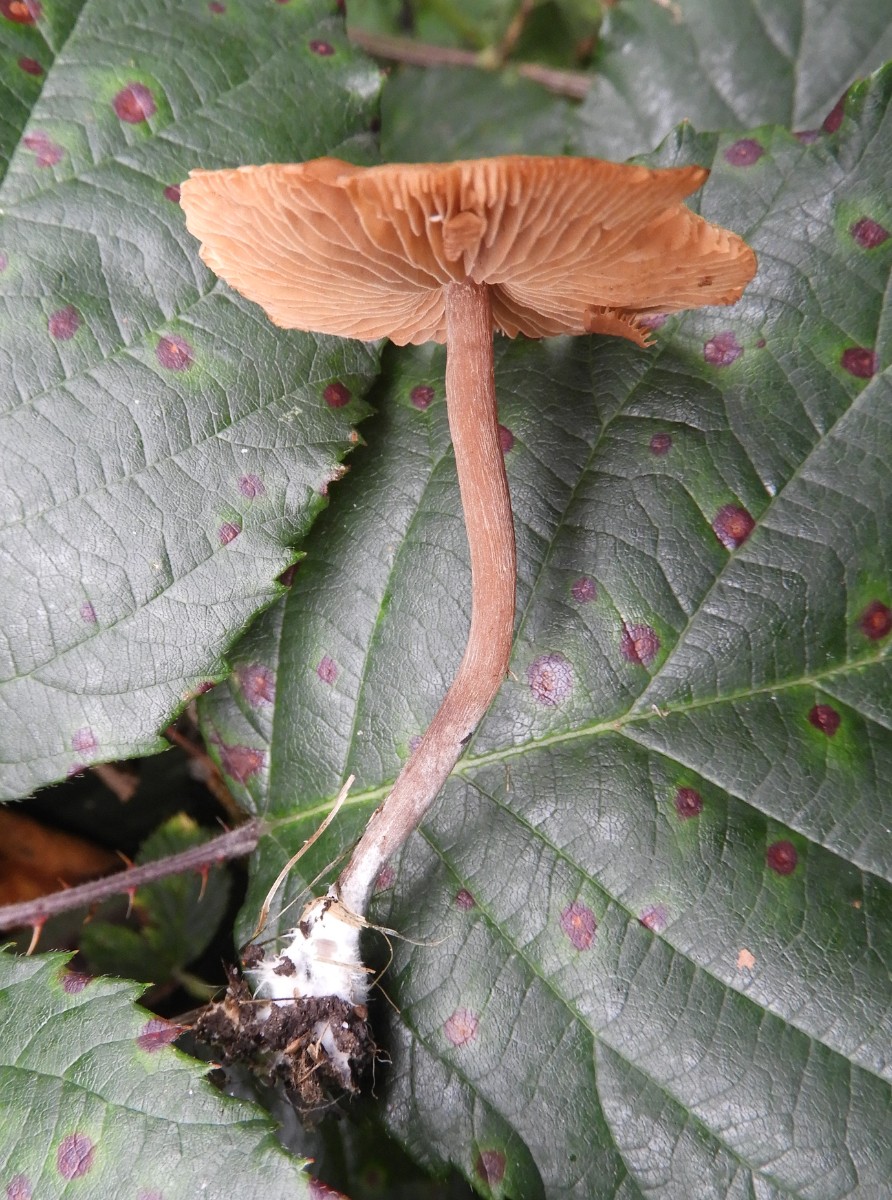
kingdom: Fungi
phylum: Basidiomycota
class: Agaricomycetes
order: Agaricales
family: Tubariaceae
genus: Tubaria
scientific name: Tubaria furfuracea
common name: kliddet fnughat
